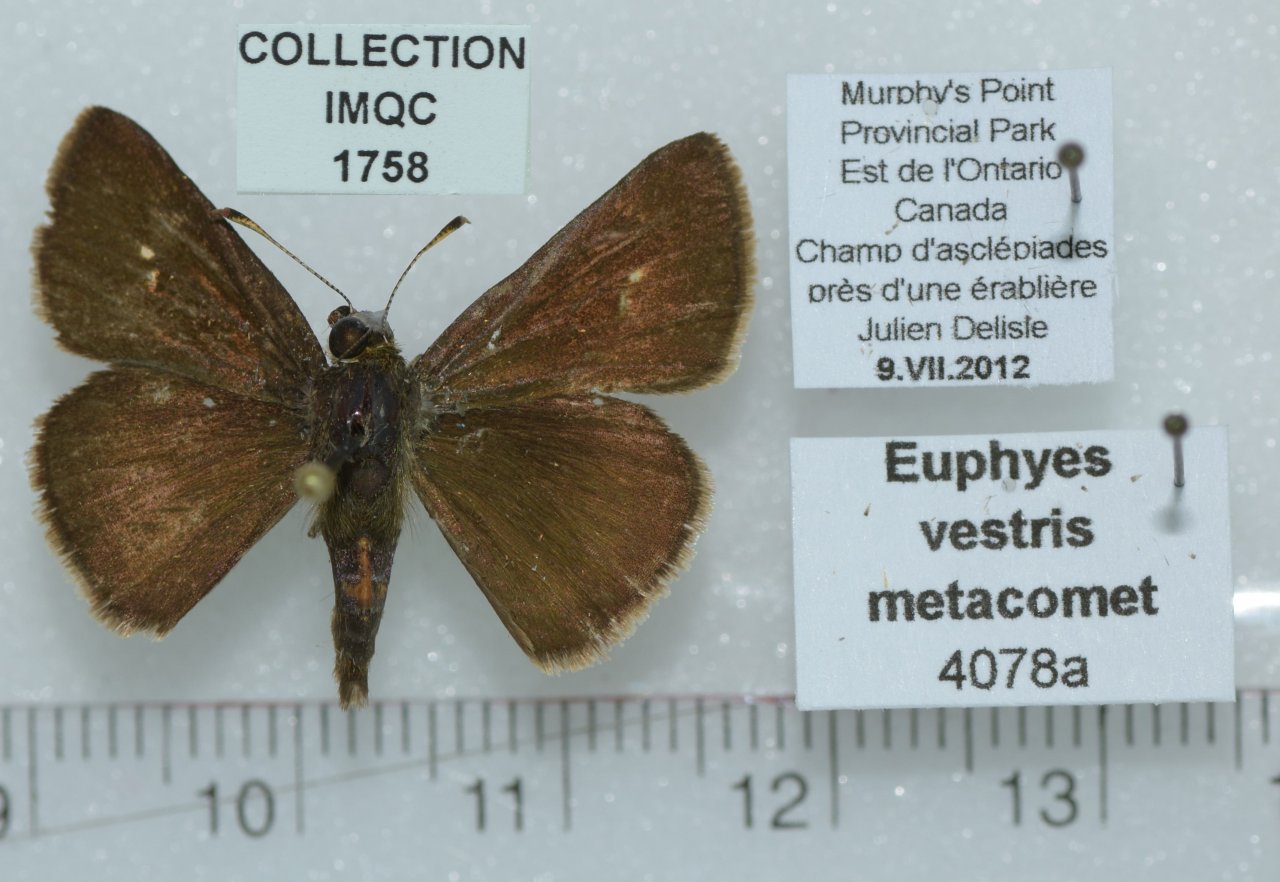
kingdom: Animalia
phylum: Arthropoda
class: Insecta
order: Lepidoptera
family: Hesperiidae
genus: Euphyes
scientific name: Euphyes vestris
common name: Dun Skipper
